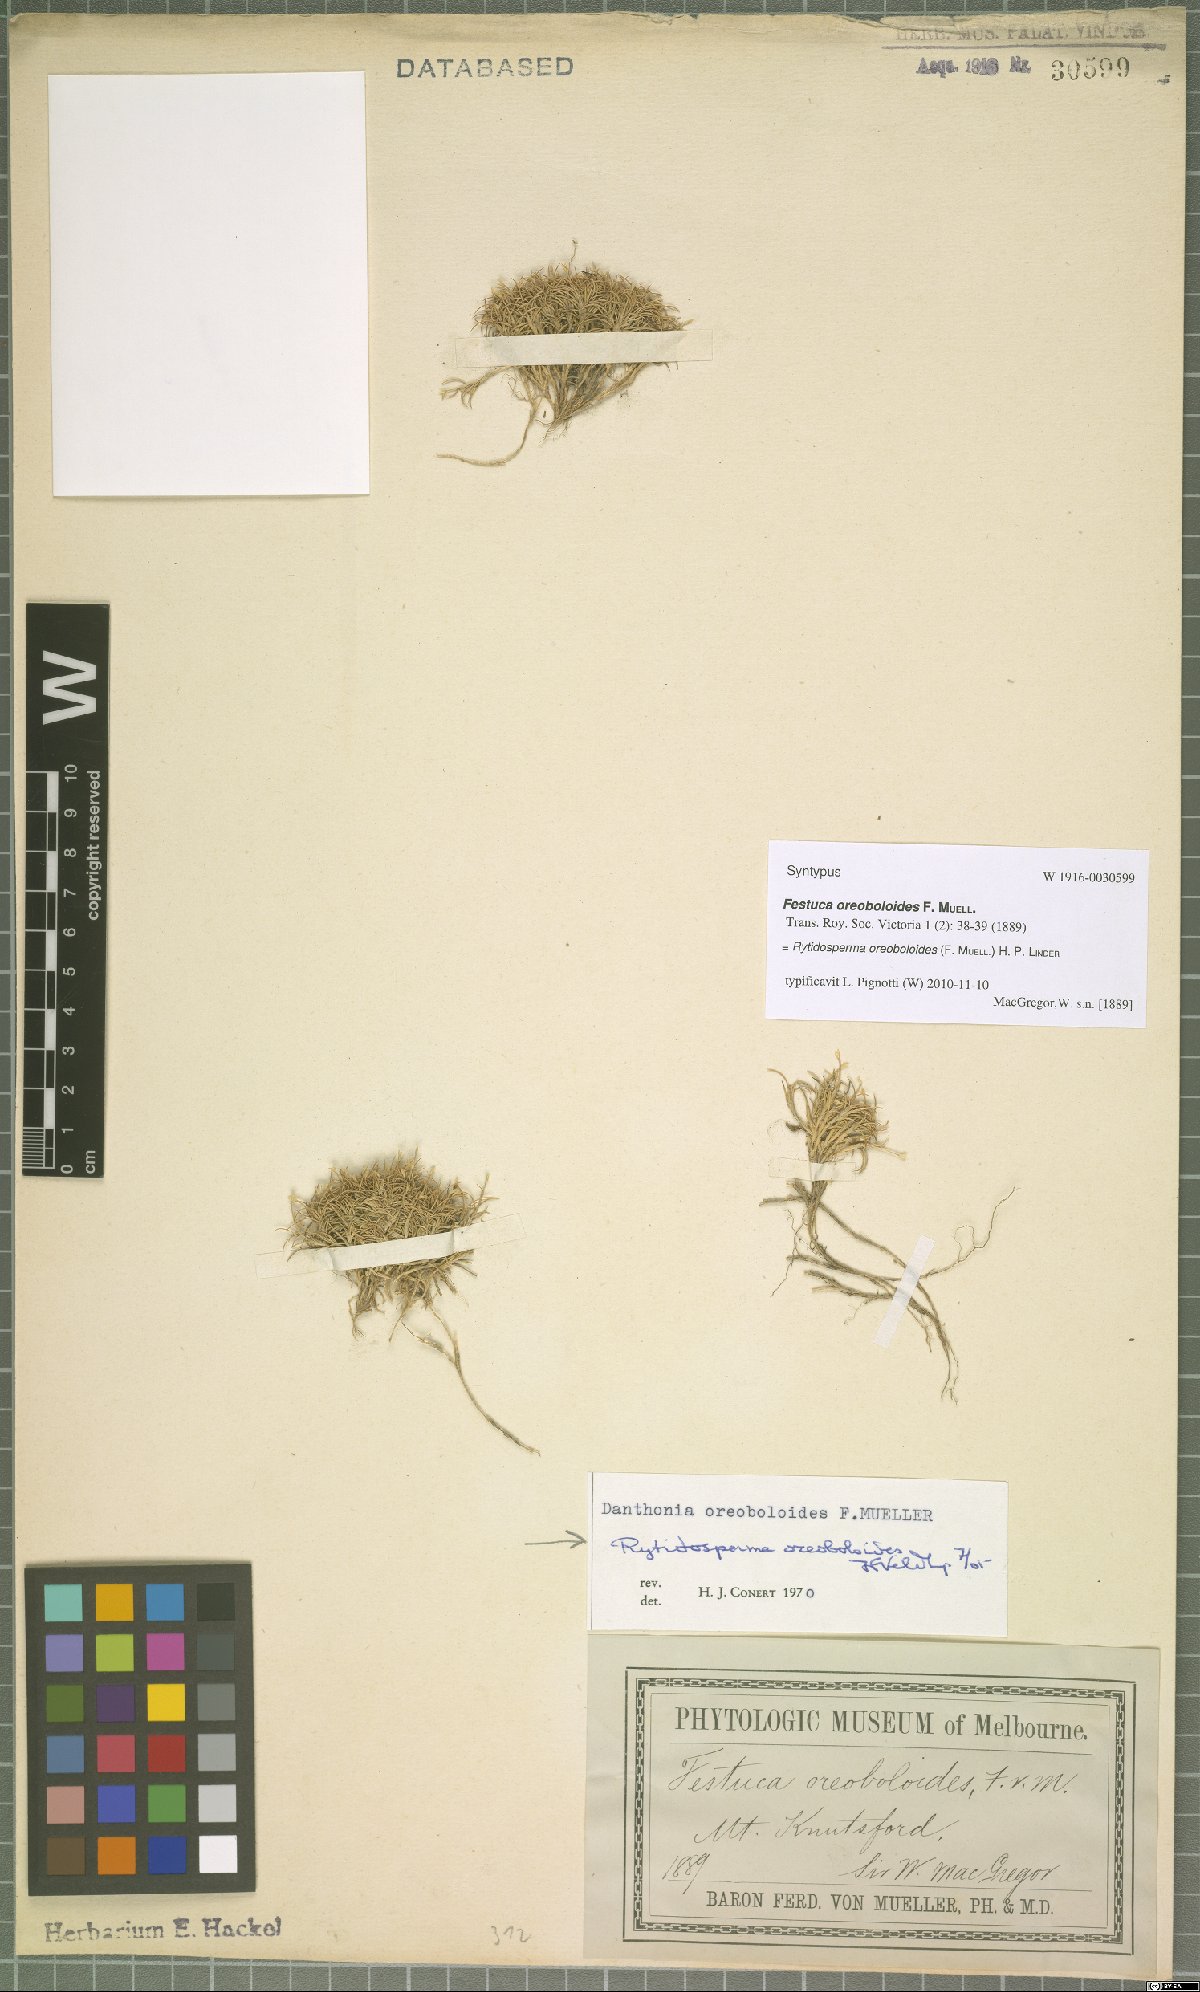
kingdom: Plantae
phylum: Tracheophyta
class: Liliopsida
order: Poales
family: Poaceae
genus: Rytidosperma
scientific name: Rytidosperma oreoboloides
